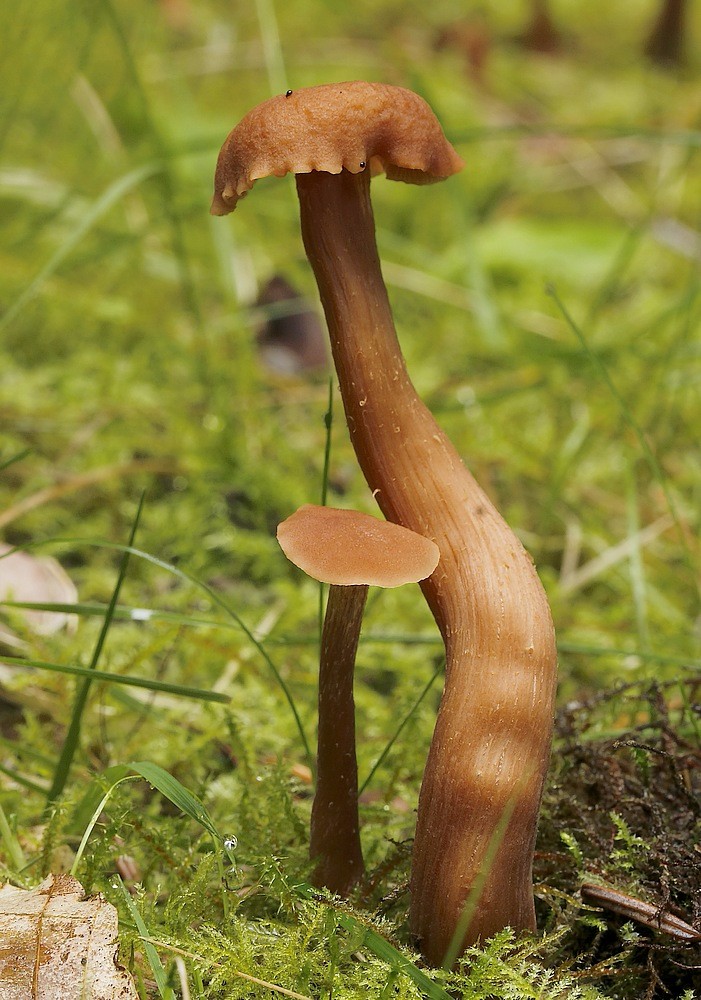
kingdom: Fungi
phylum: Basidiomycota
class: Agaricomycetes
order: Agaricales
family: Hydnangiaceae
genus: Laccaria
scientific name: Laccaria laccata
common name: rød ametysthat
